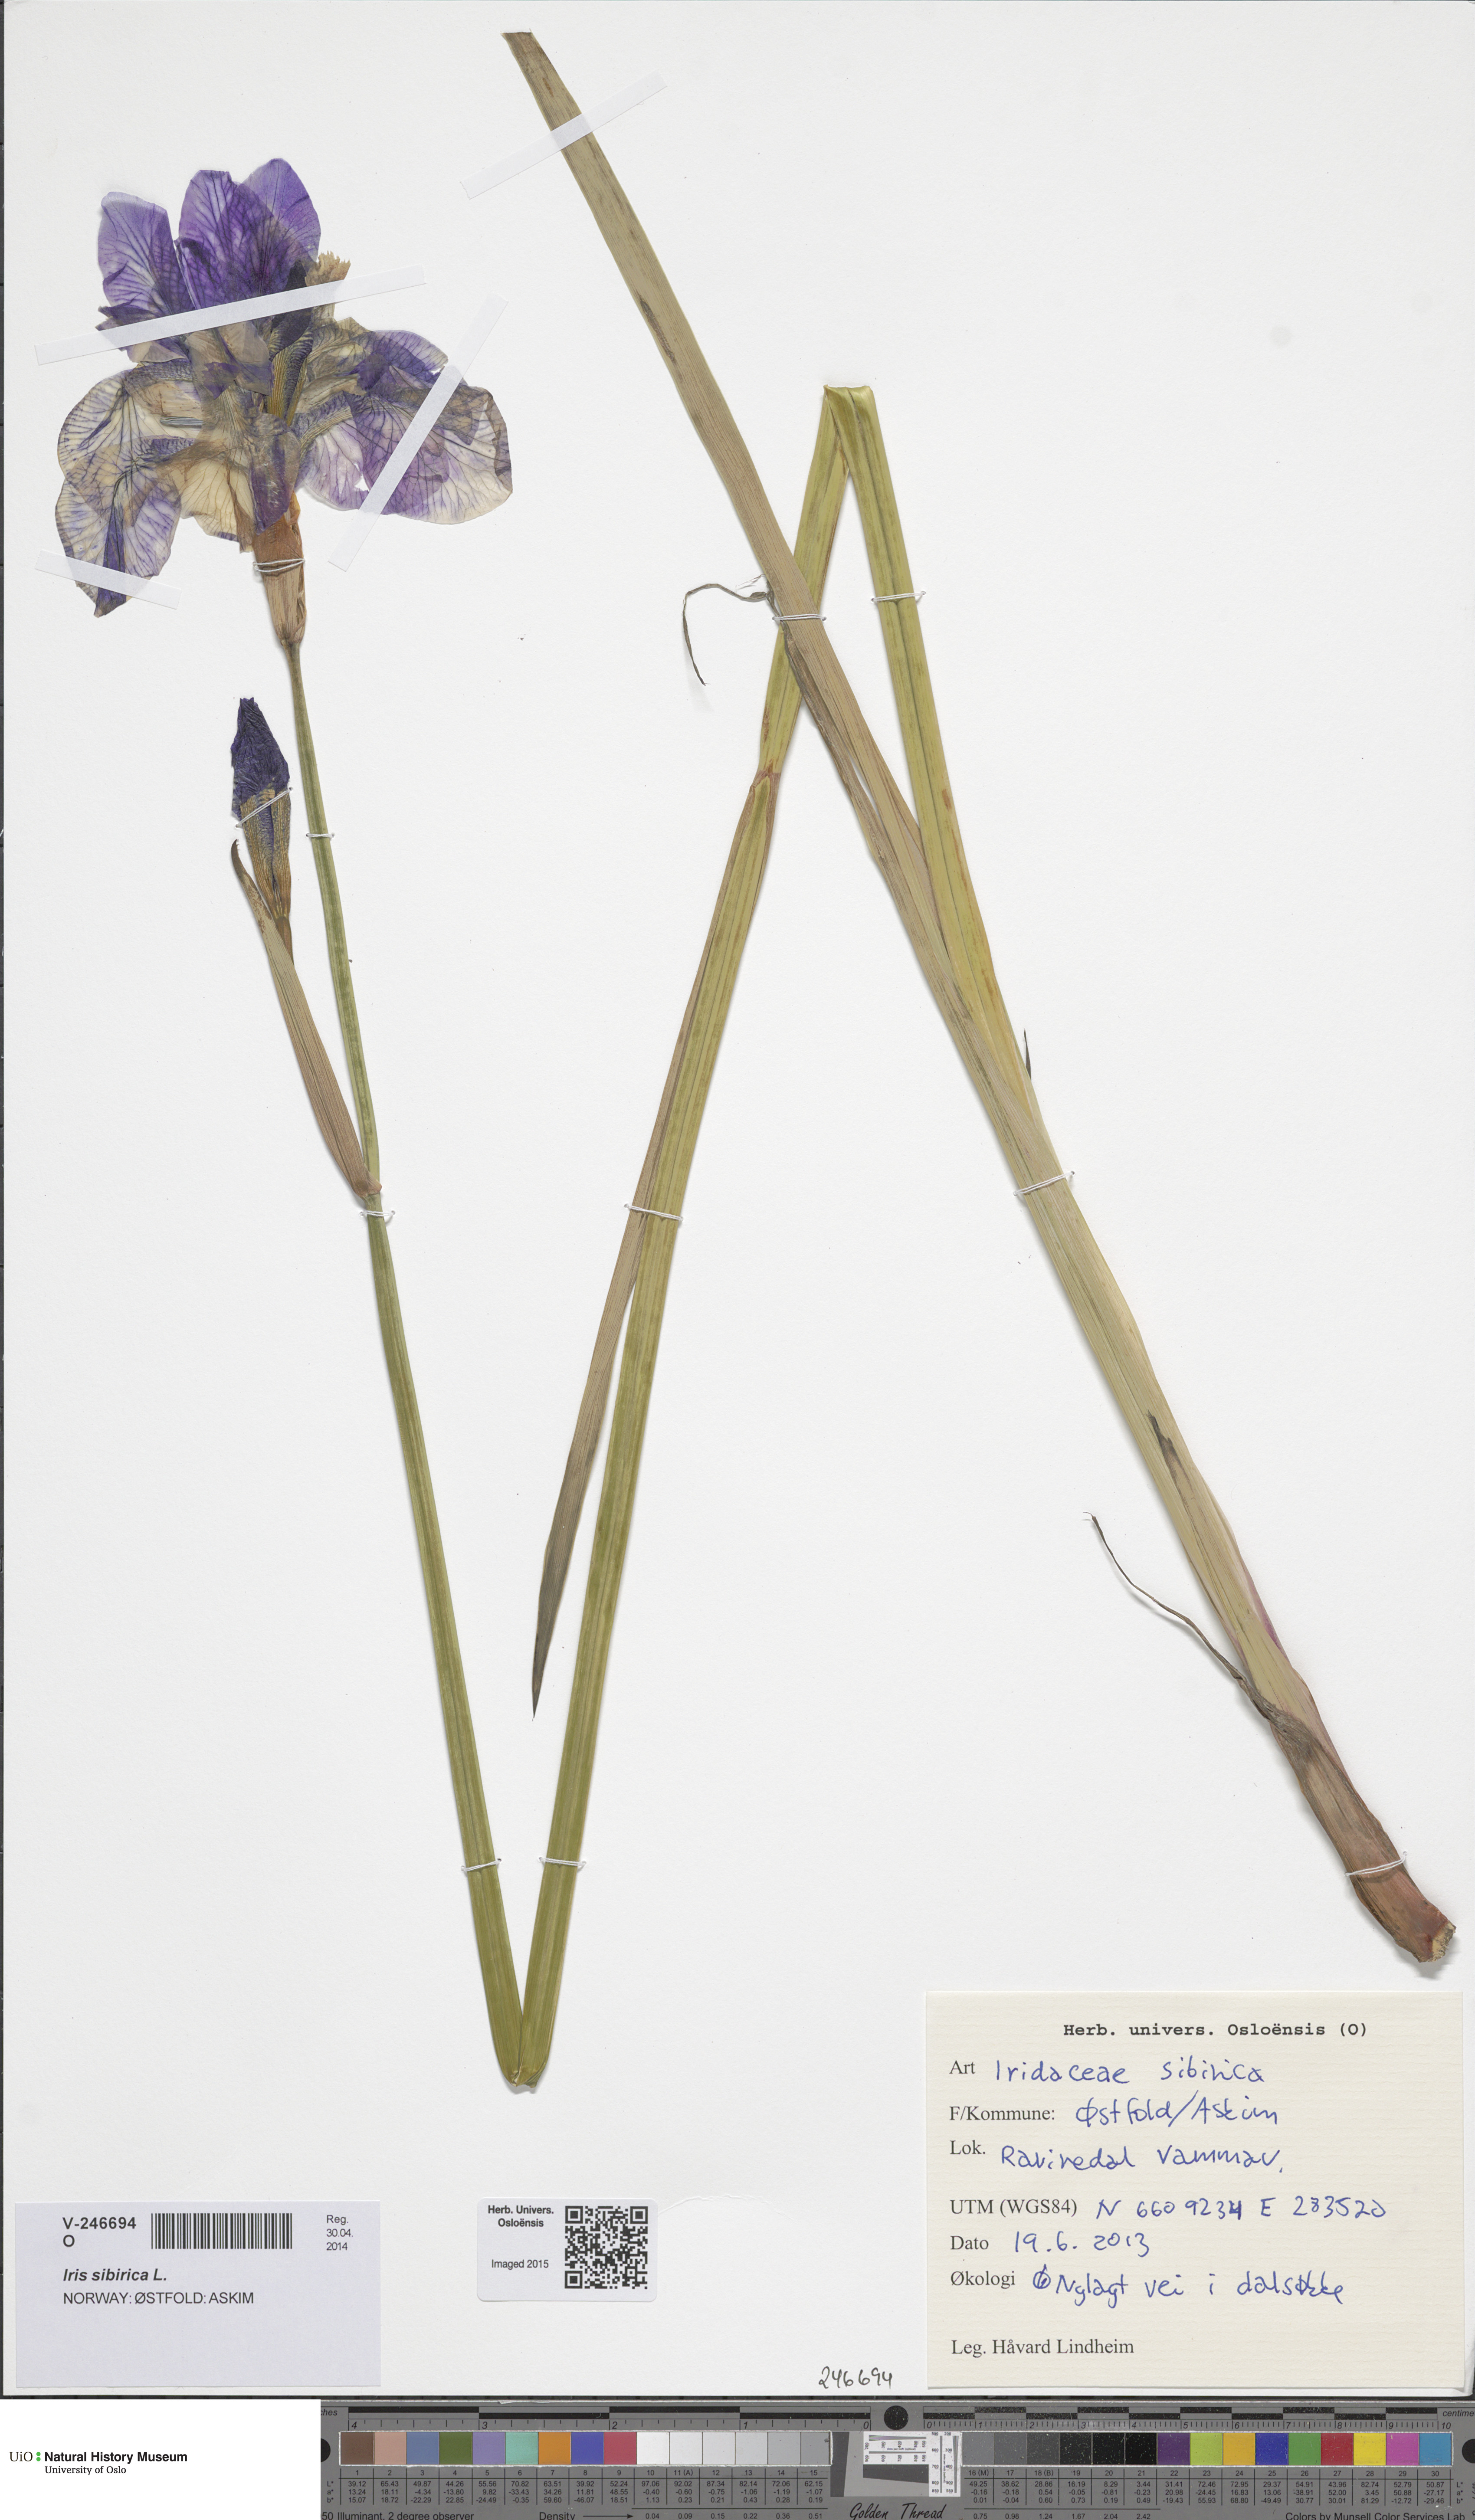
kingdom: Plantae
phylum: Tracheophyta
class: Liliopsida
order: Asparagales
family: Iridaceae
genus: Iris
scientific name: Iris sibirica
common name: Siberian iris
